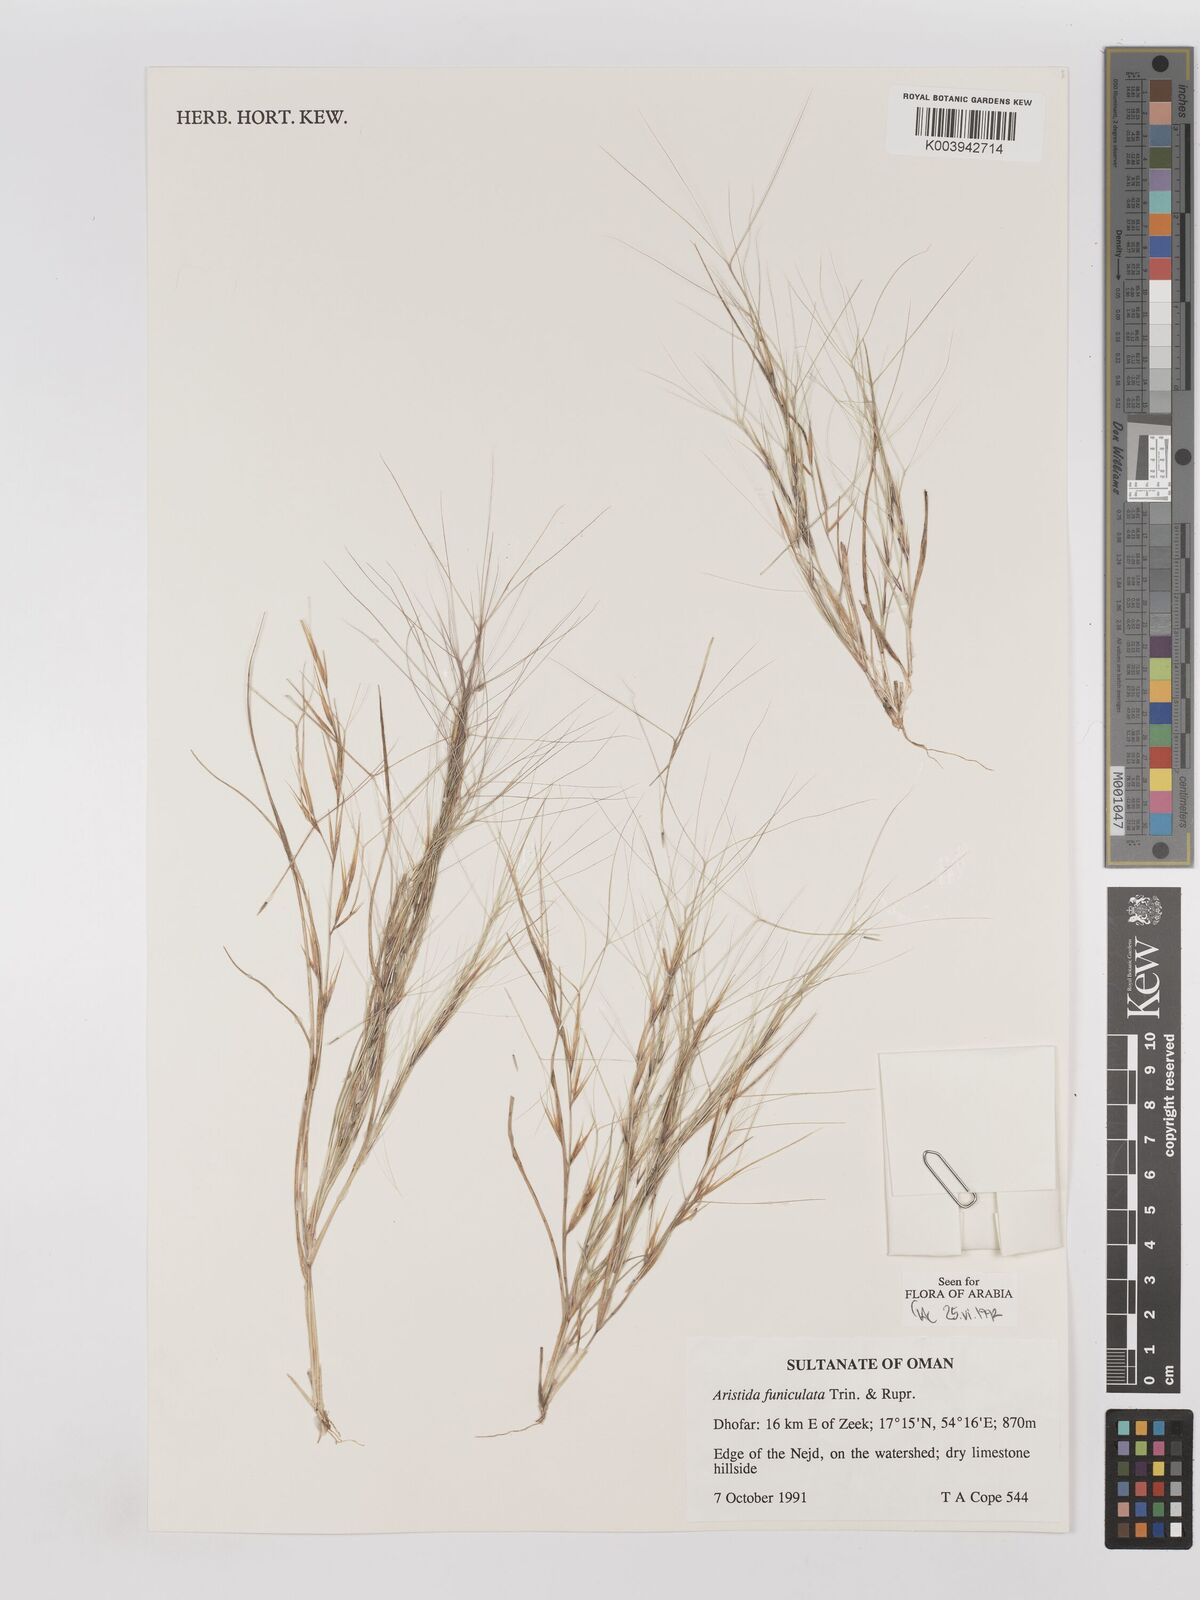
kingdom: Plantae
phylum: Tracheophyta
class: Liliopsida
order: Poales
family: Poaceae
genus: Aristida
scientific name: Aristida funiculata
